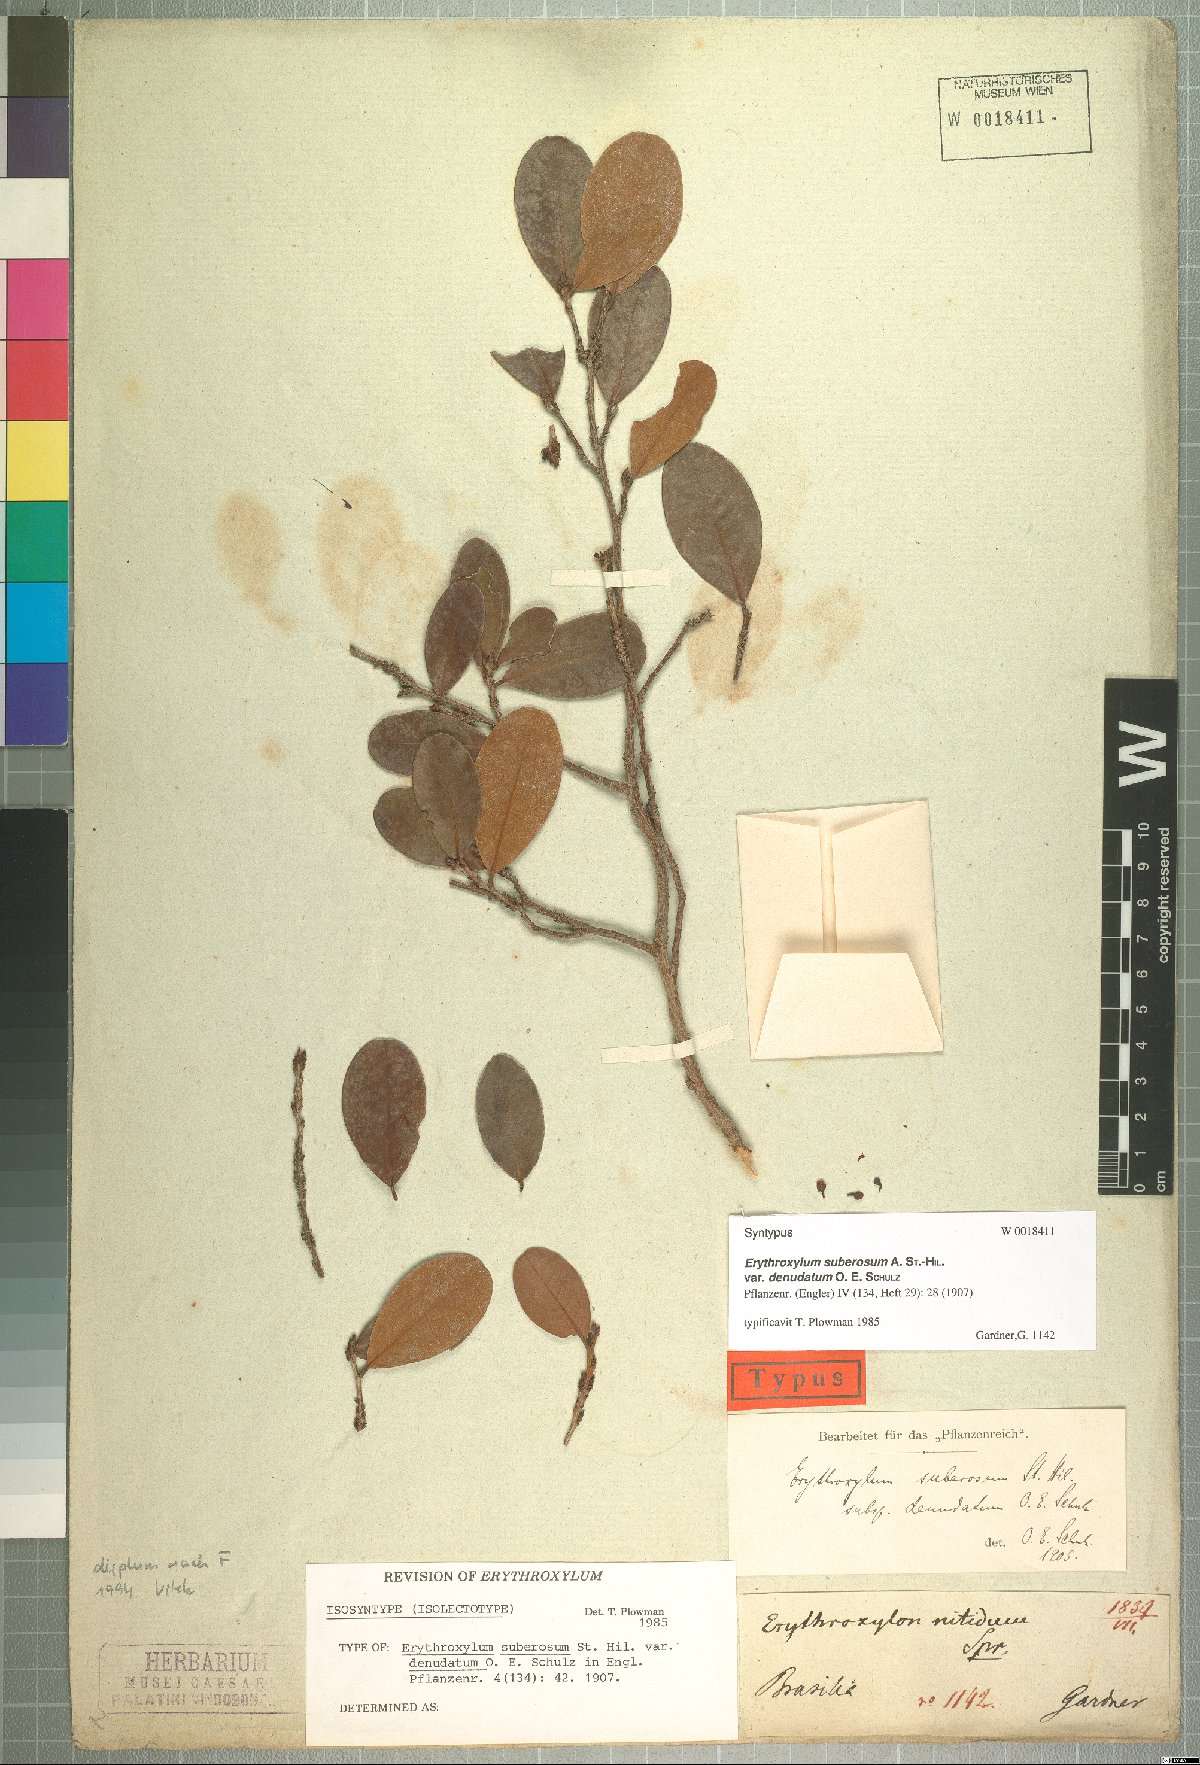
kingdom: Plantae
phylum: Tracheophyta
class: Magnoliopsida
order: Malpighiales
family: Erythroxylaceae
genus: Erythroxylum
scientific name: Erythroxylum rimosum
